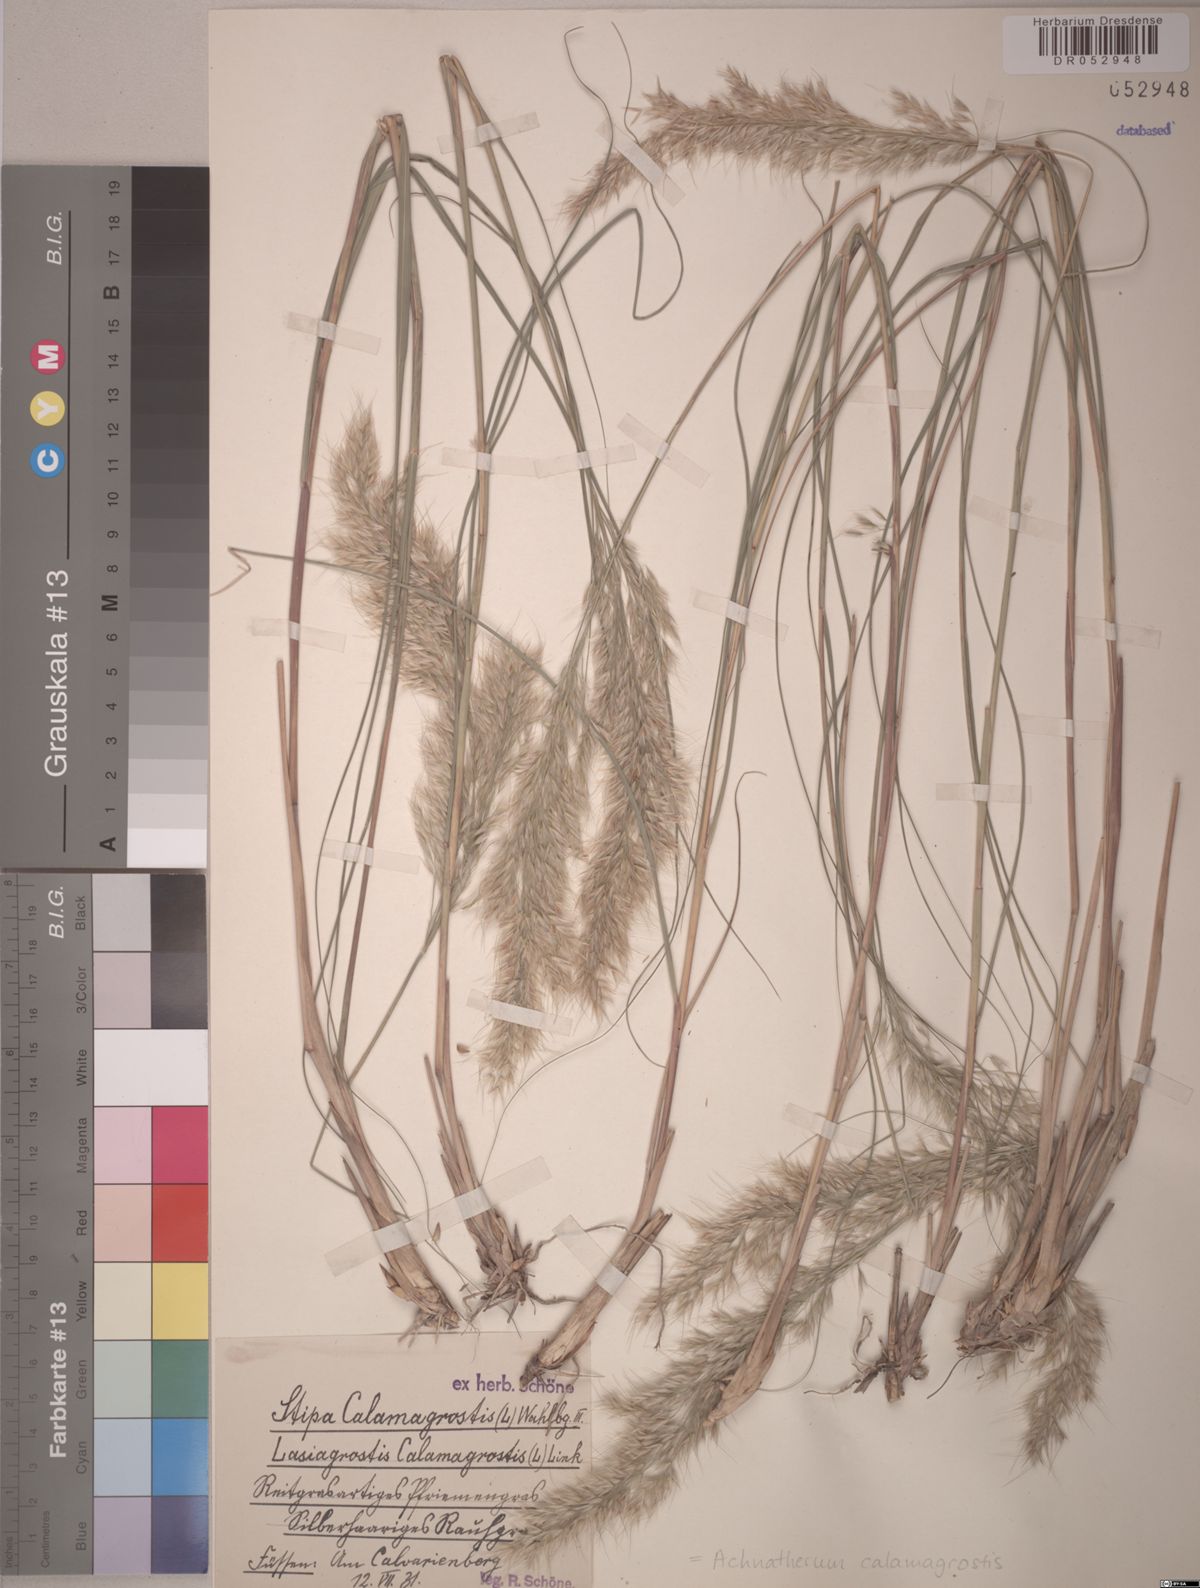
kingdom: Plantae
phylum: Tracheophyta
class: Liliopsida
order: Poales
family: Poaceae
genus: Achnatherum
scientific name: Achnatherum calamagrostis
